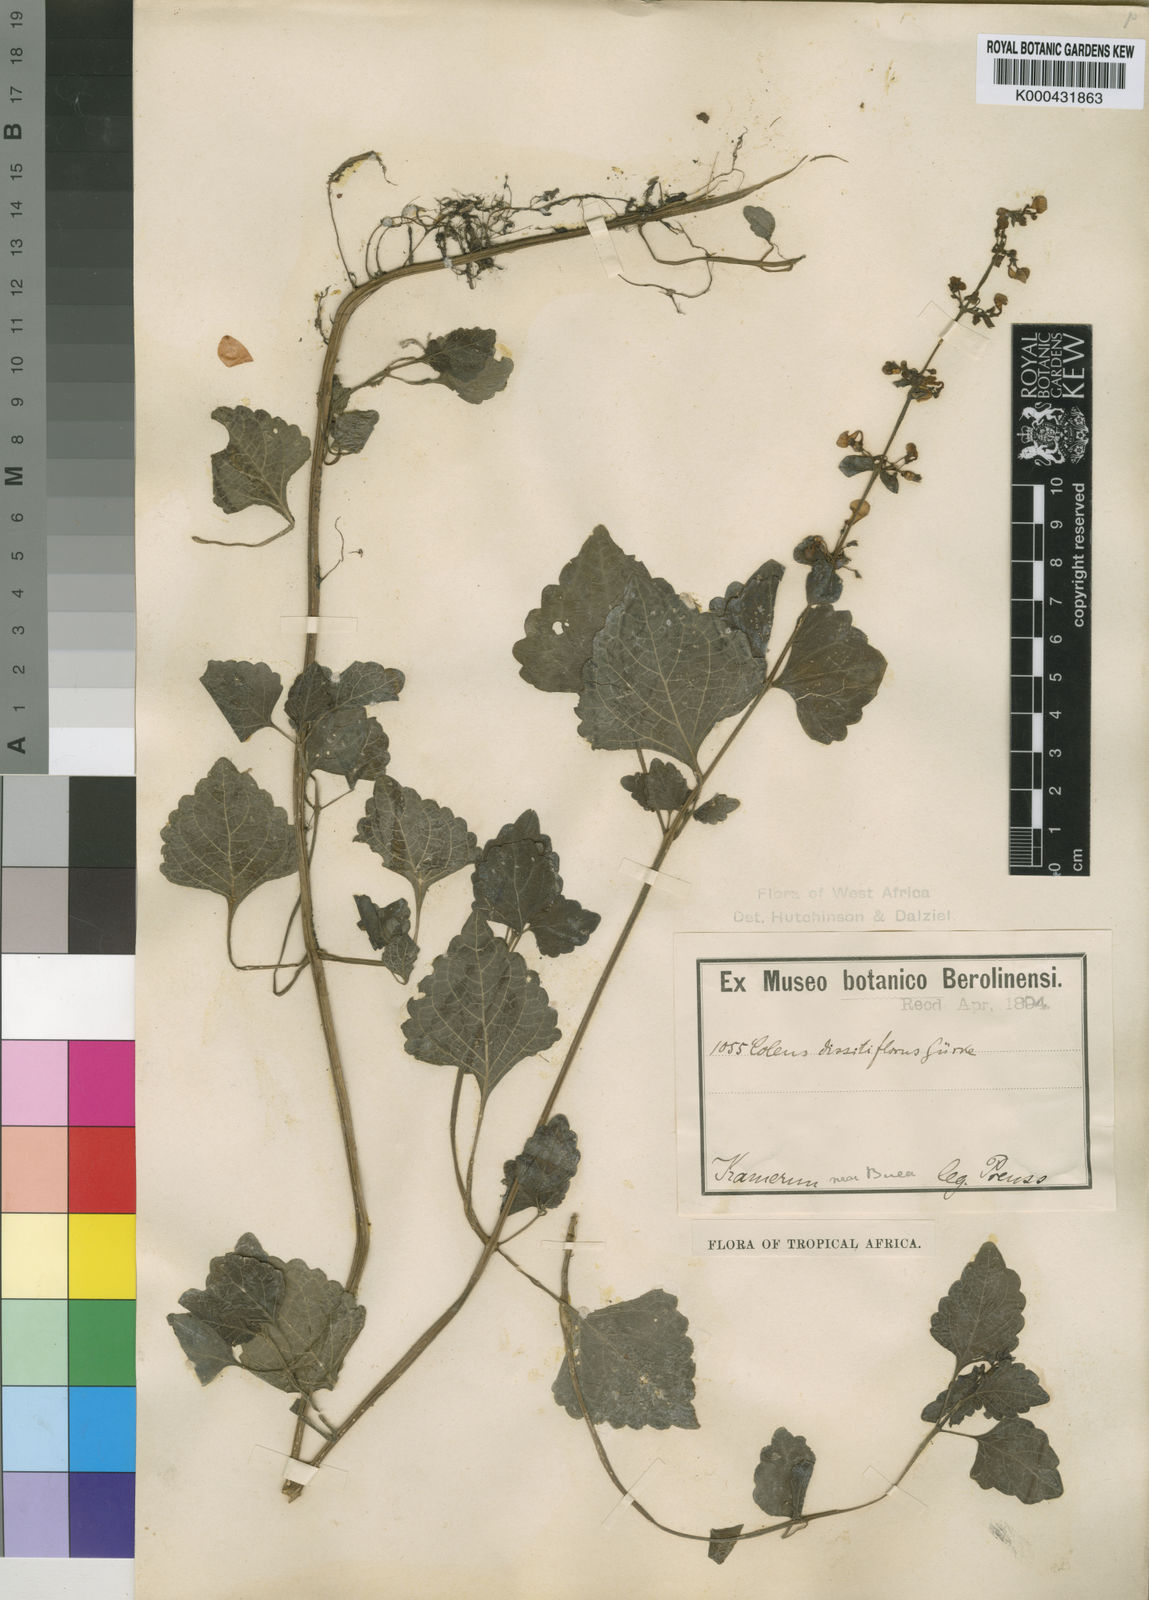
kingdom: Plantae
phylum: Tracheophyta
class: Magnoliopsida
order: Lamiales
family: Lamiaceae
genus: Plectranthus
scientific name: Plectranthus
